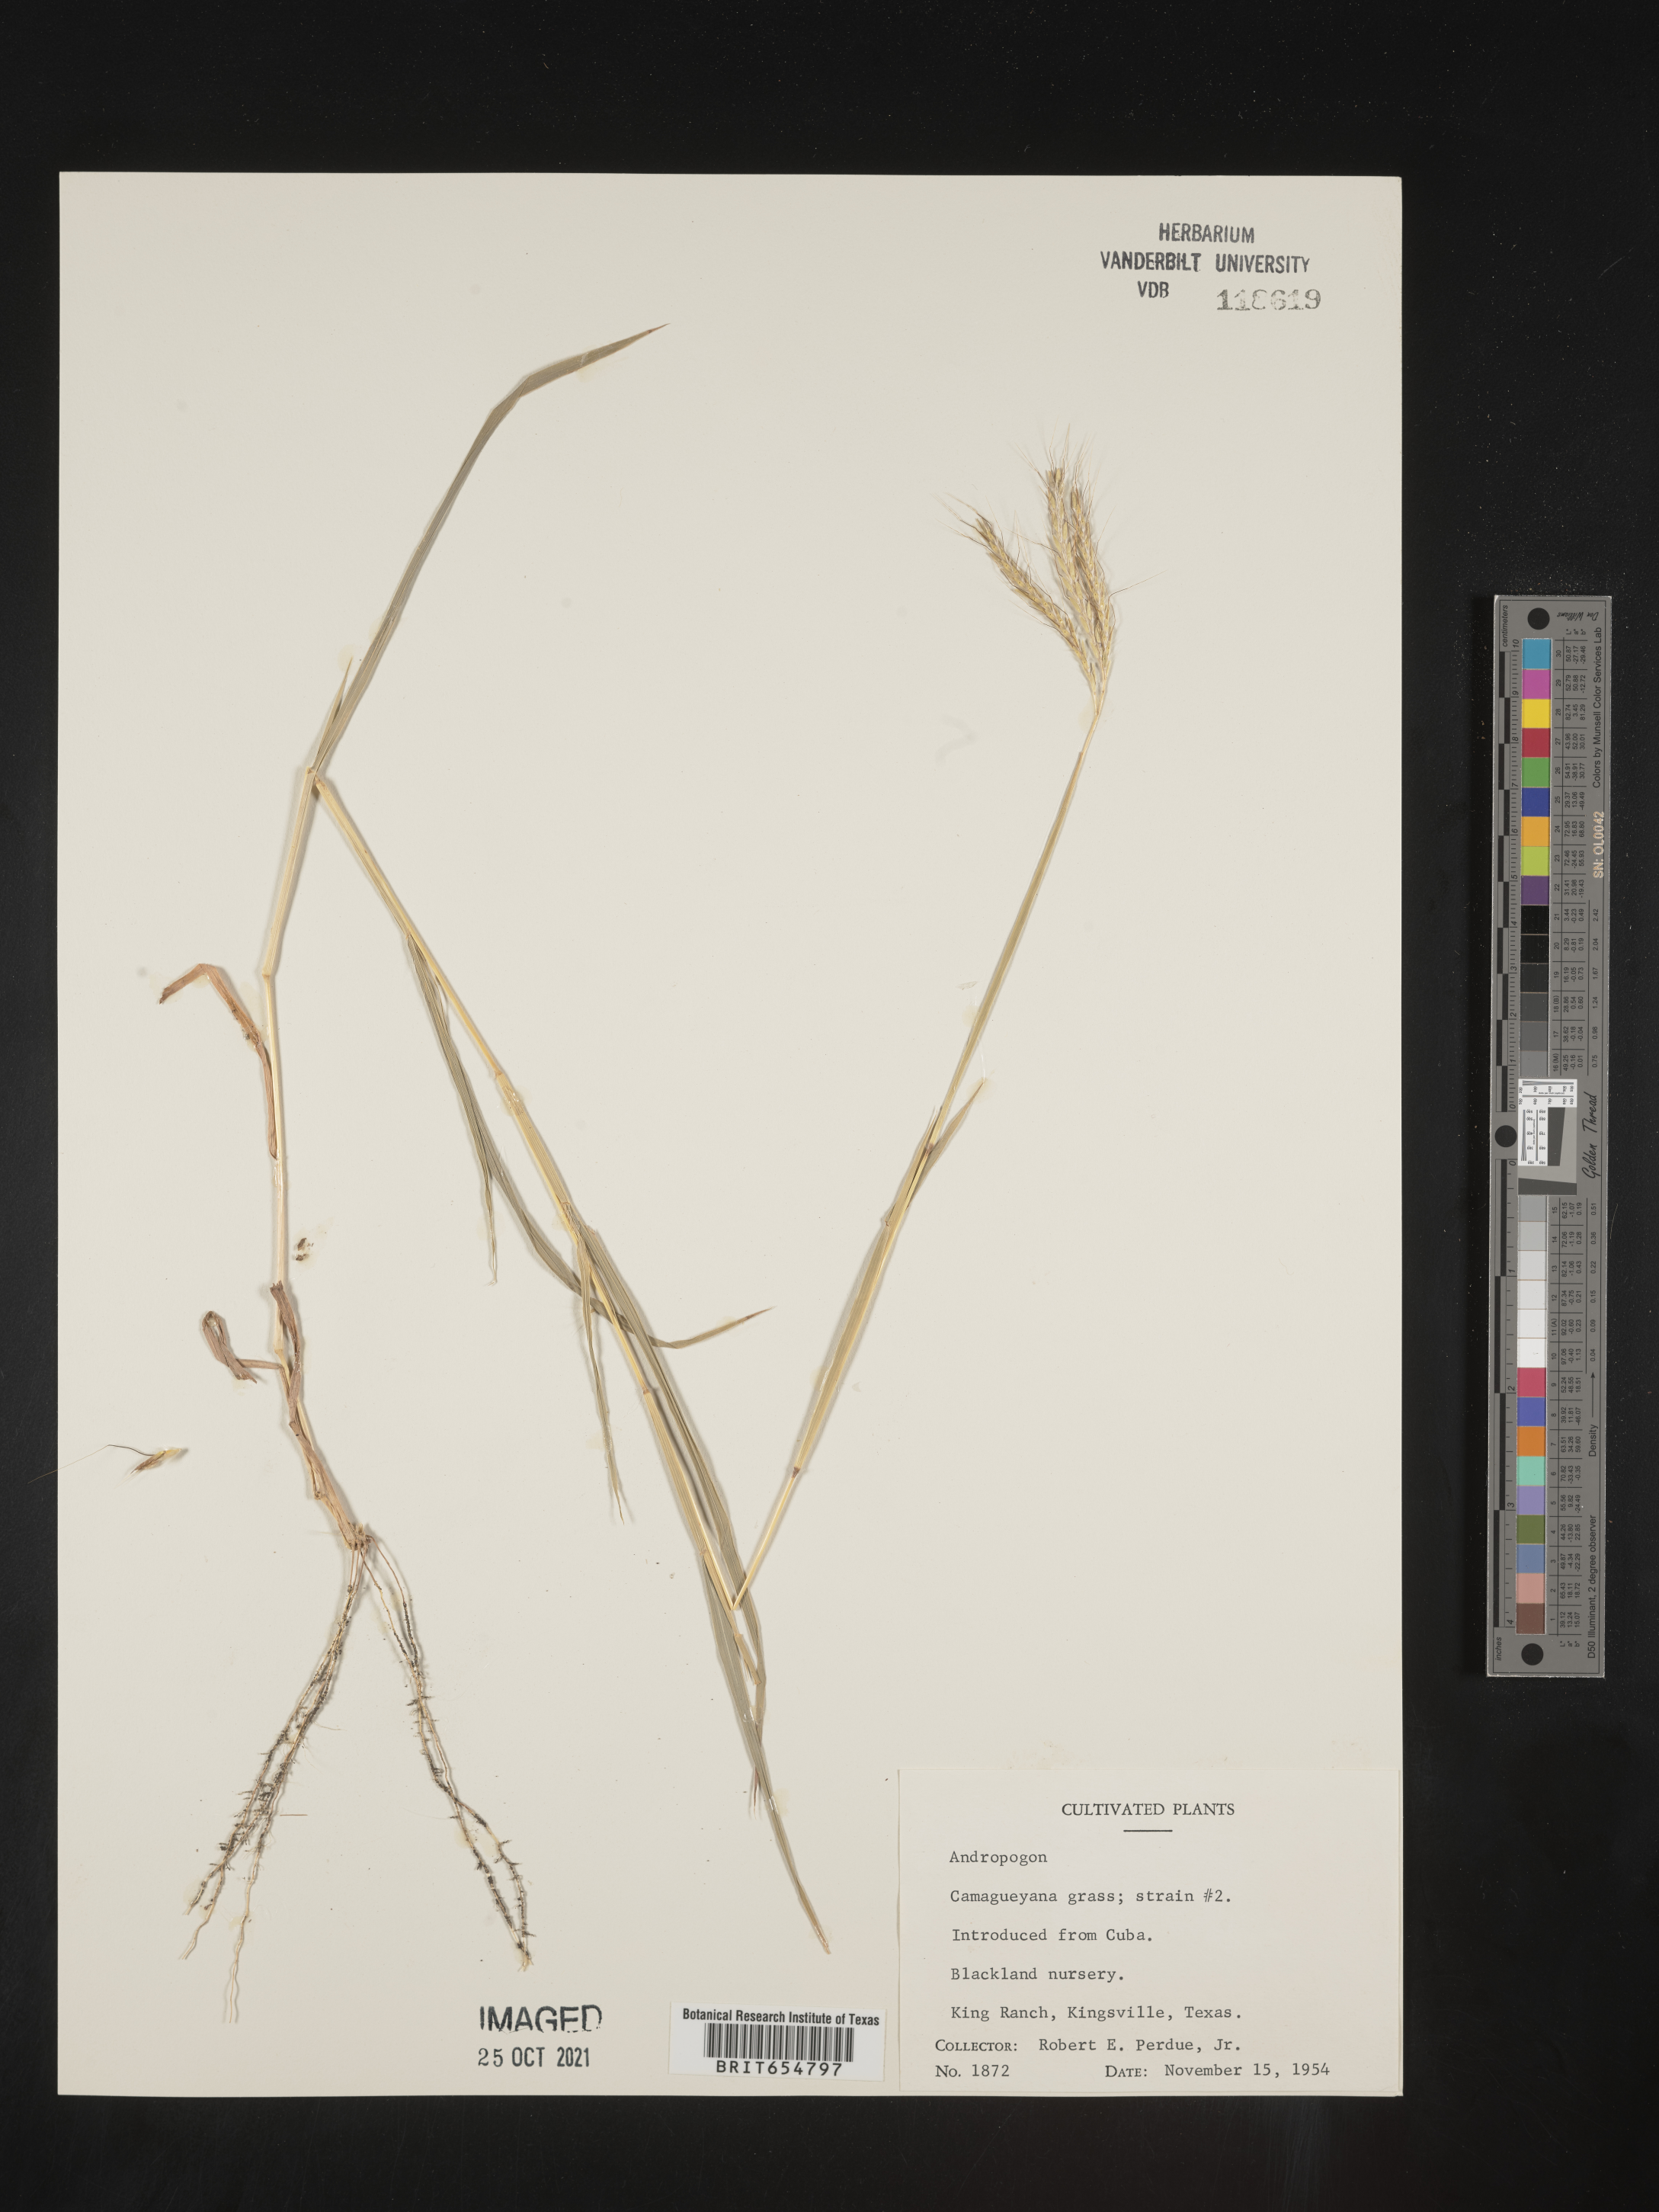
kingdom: Plantae
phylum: Tracheophyta
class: Liliopsida
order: Poales
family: Poaceae
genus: Andropogon
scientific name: Andropogon
